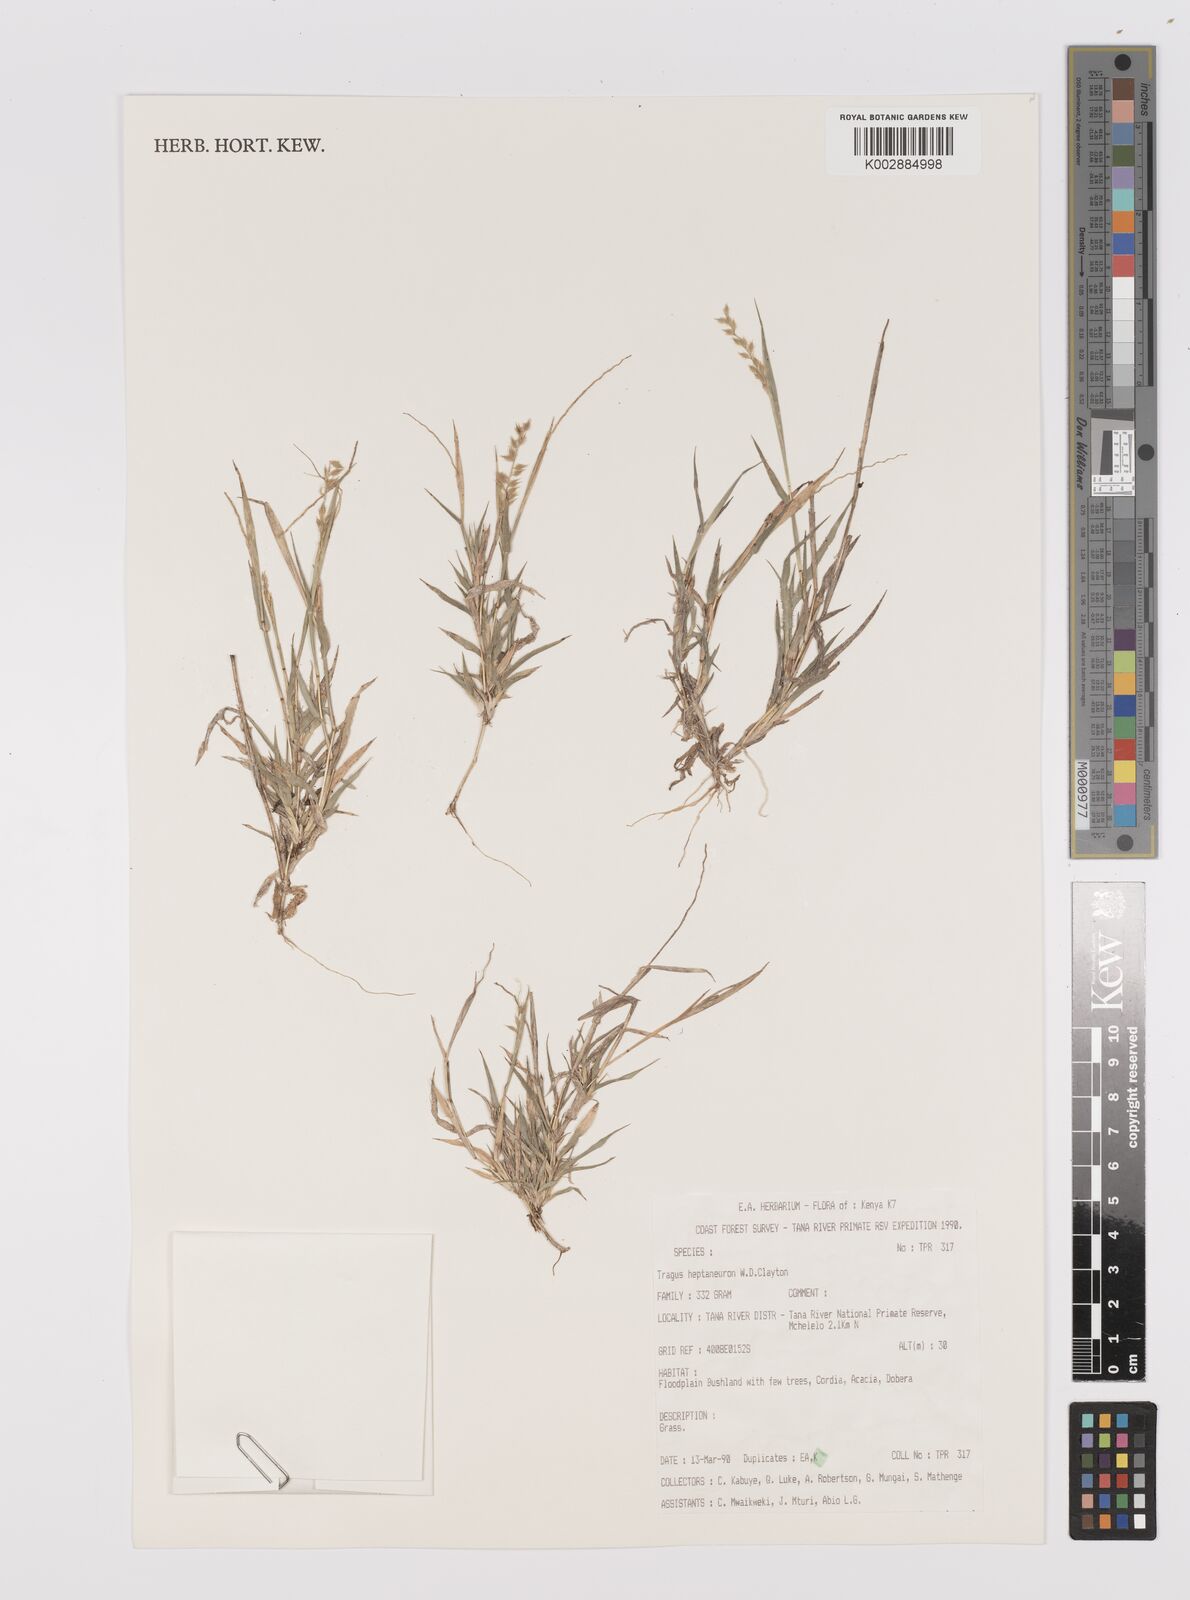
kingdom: Plantae
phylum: Tracheophyta
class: Liliopsida
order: Poales
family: Poaceae
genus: Tragus
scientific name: Tragus heptaneuron
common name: Kenya bur grass
